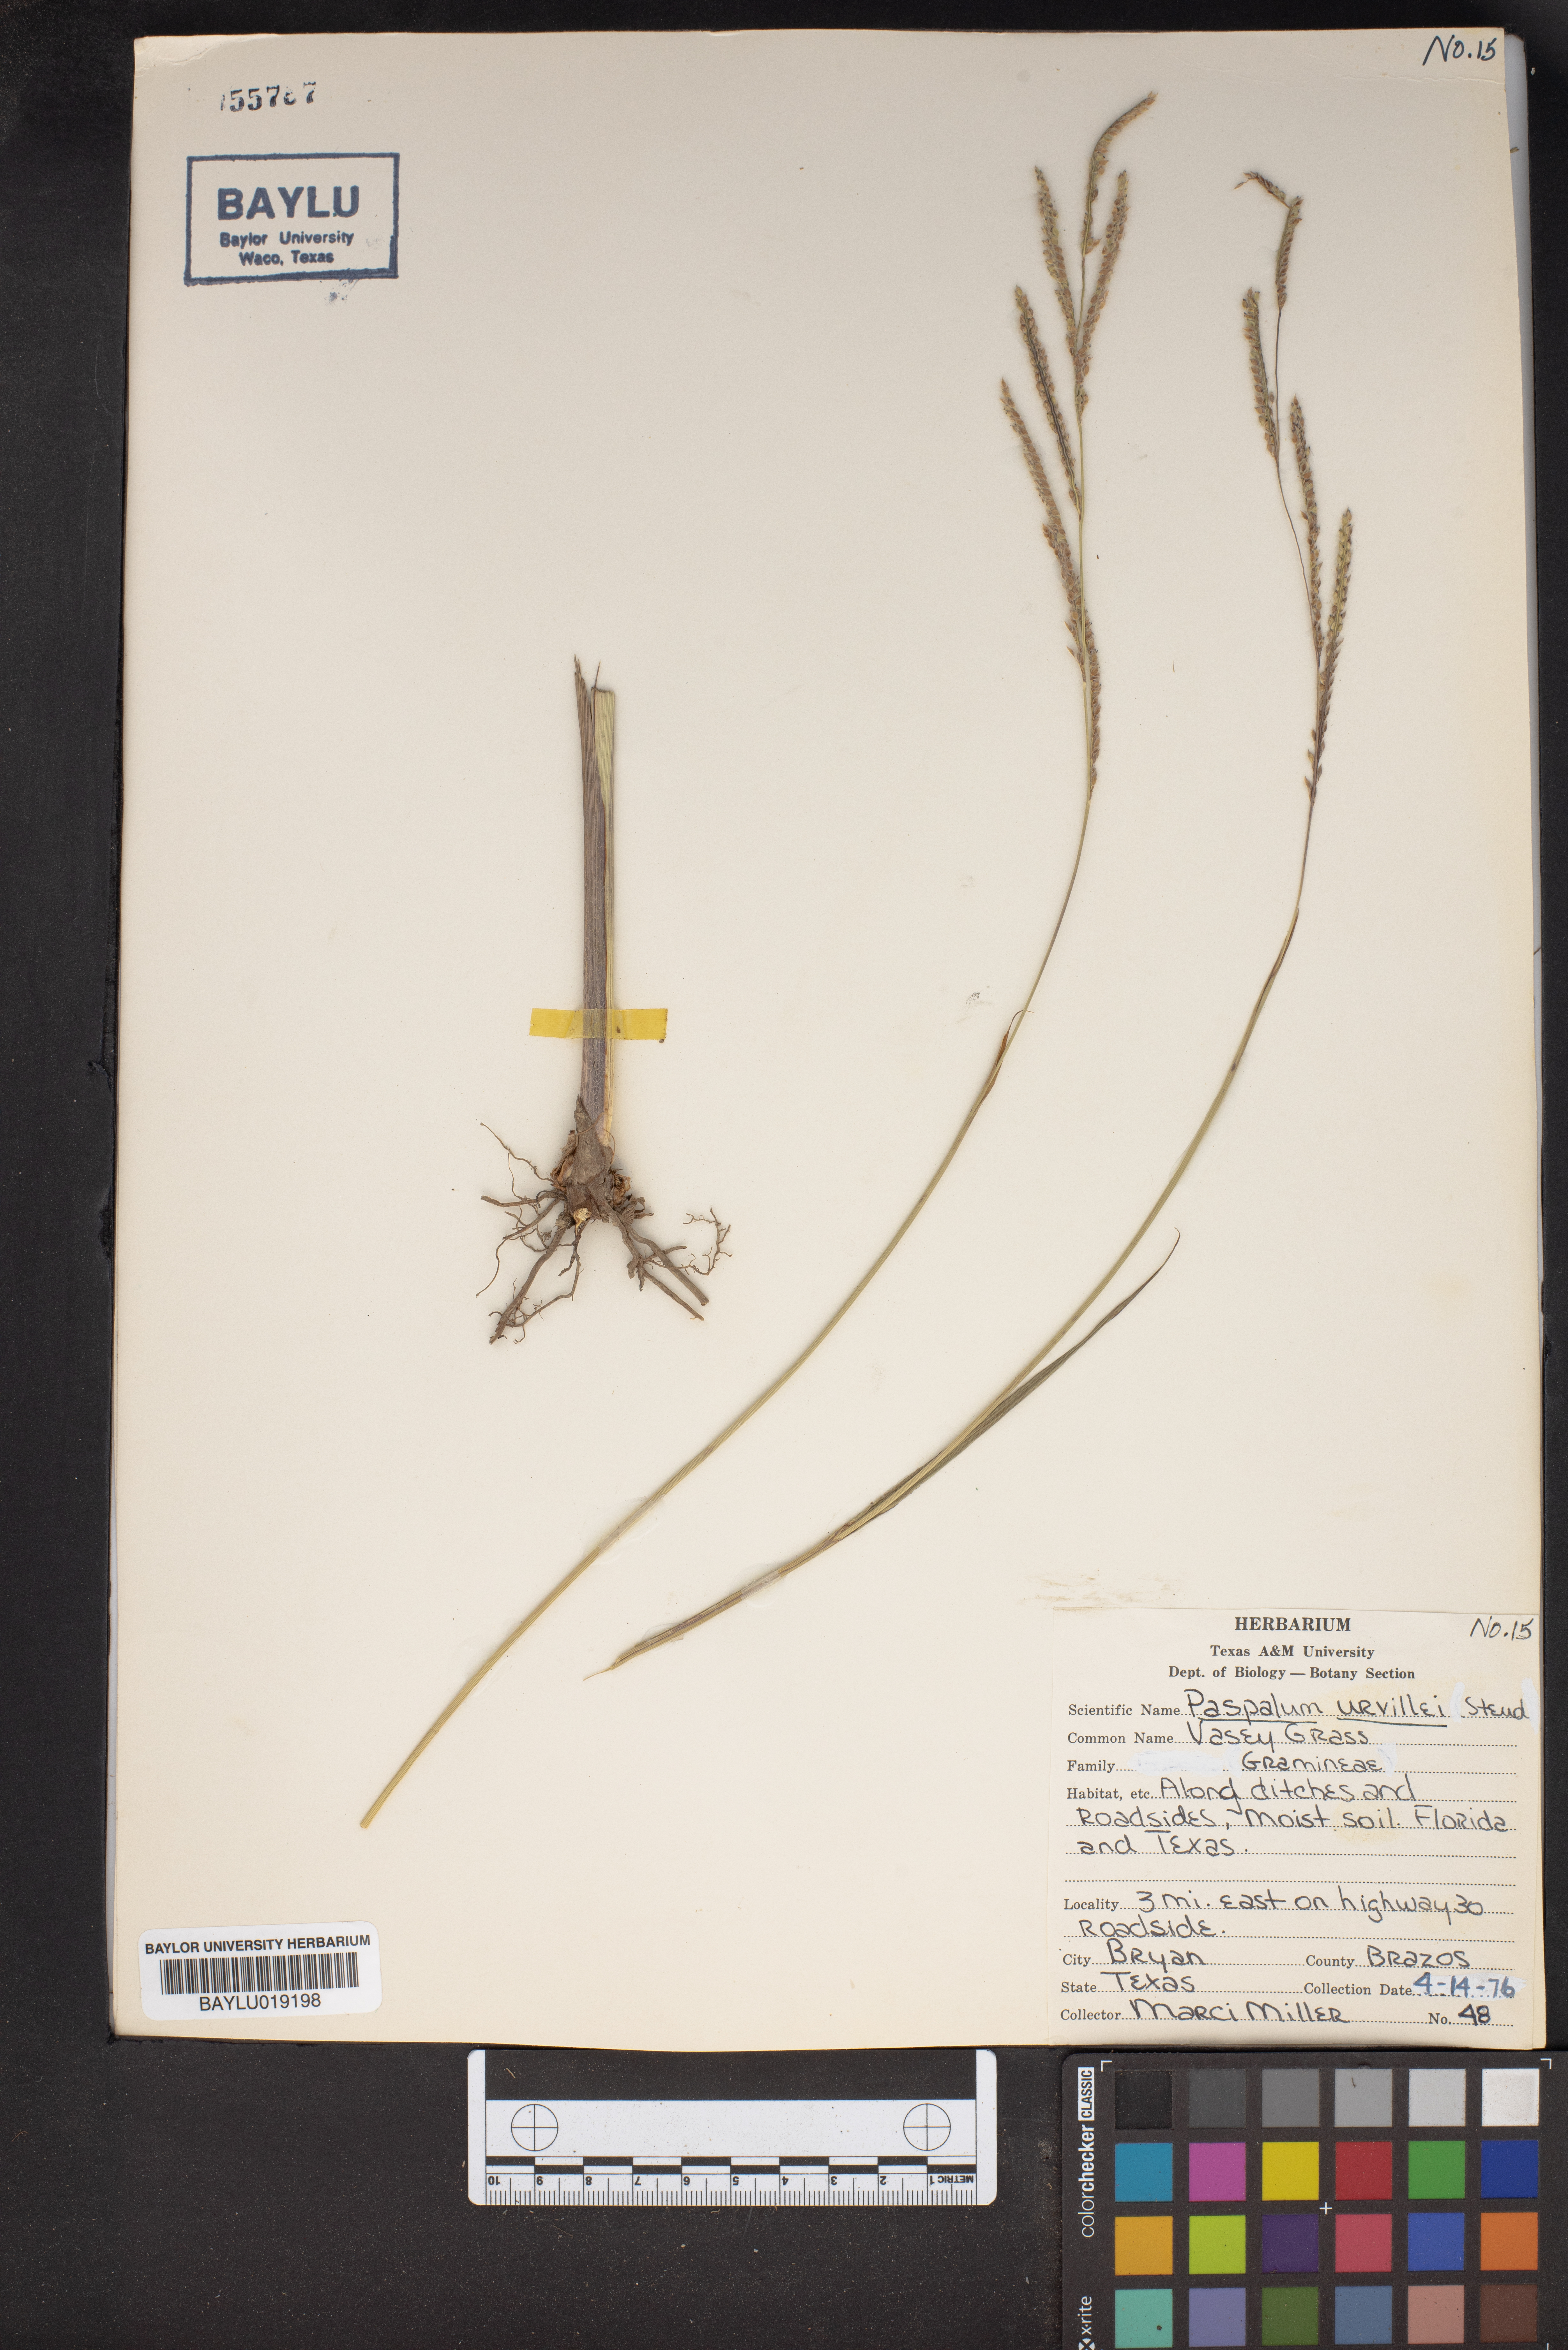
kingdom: Plantae
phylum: Tracheophyta
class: Liliopsida
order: Poales
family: Poaceae
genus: Paspalum
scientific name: Paspalum urvillei
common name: Vasey's grass
